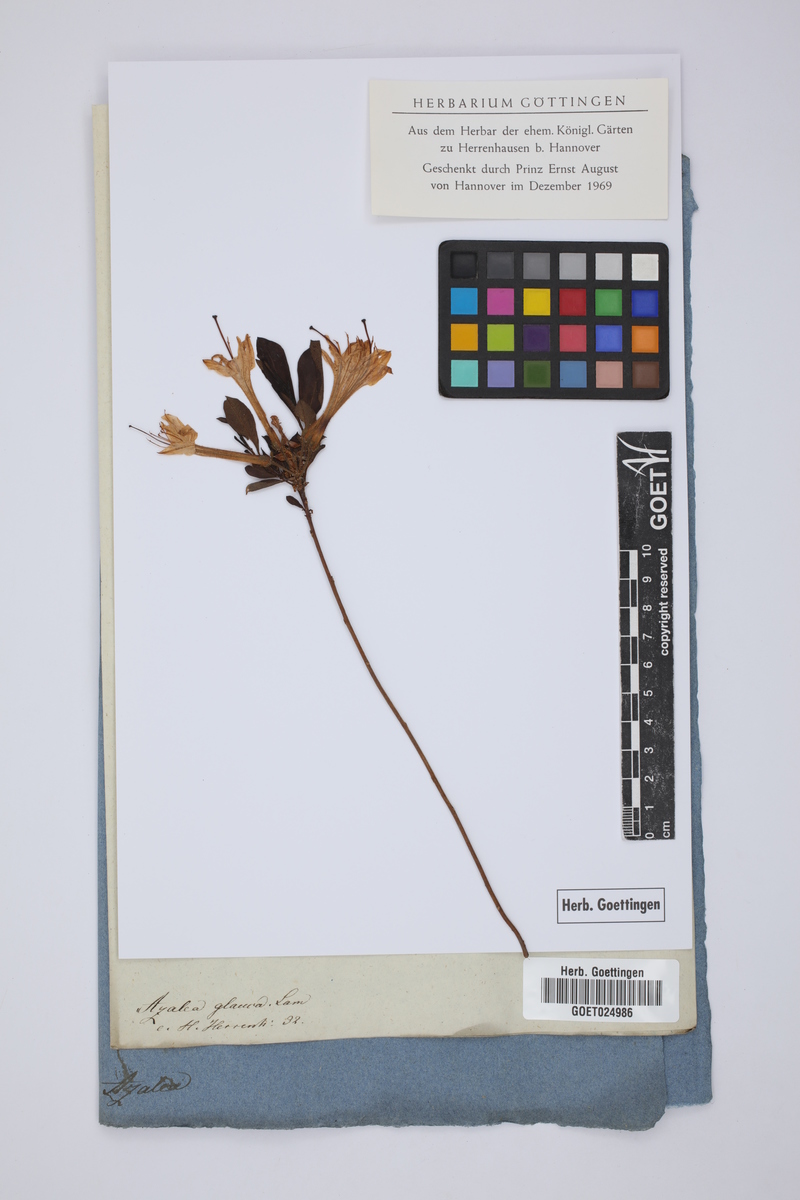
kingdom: Plantae
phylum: Tracheophyta
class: Magnoliopsida
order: Ericales
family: Ericaceae
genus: Rhododendron
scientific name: Rhododendron viscosum
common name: Clammy azalea
